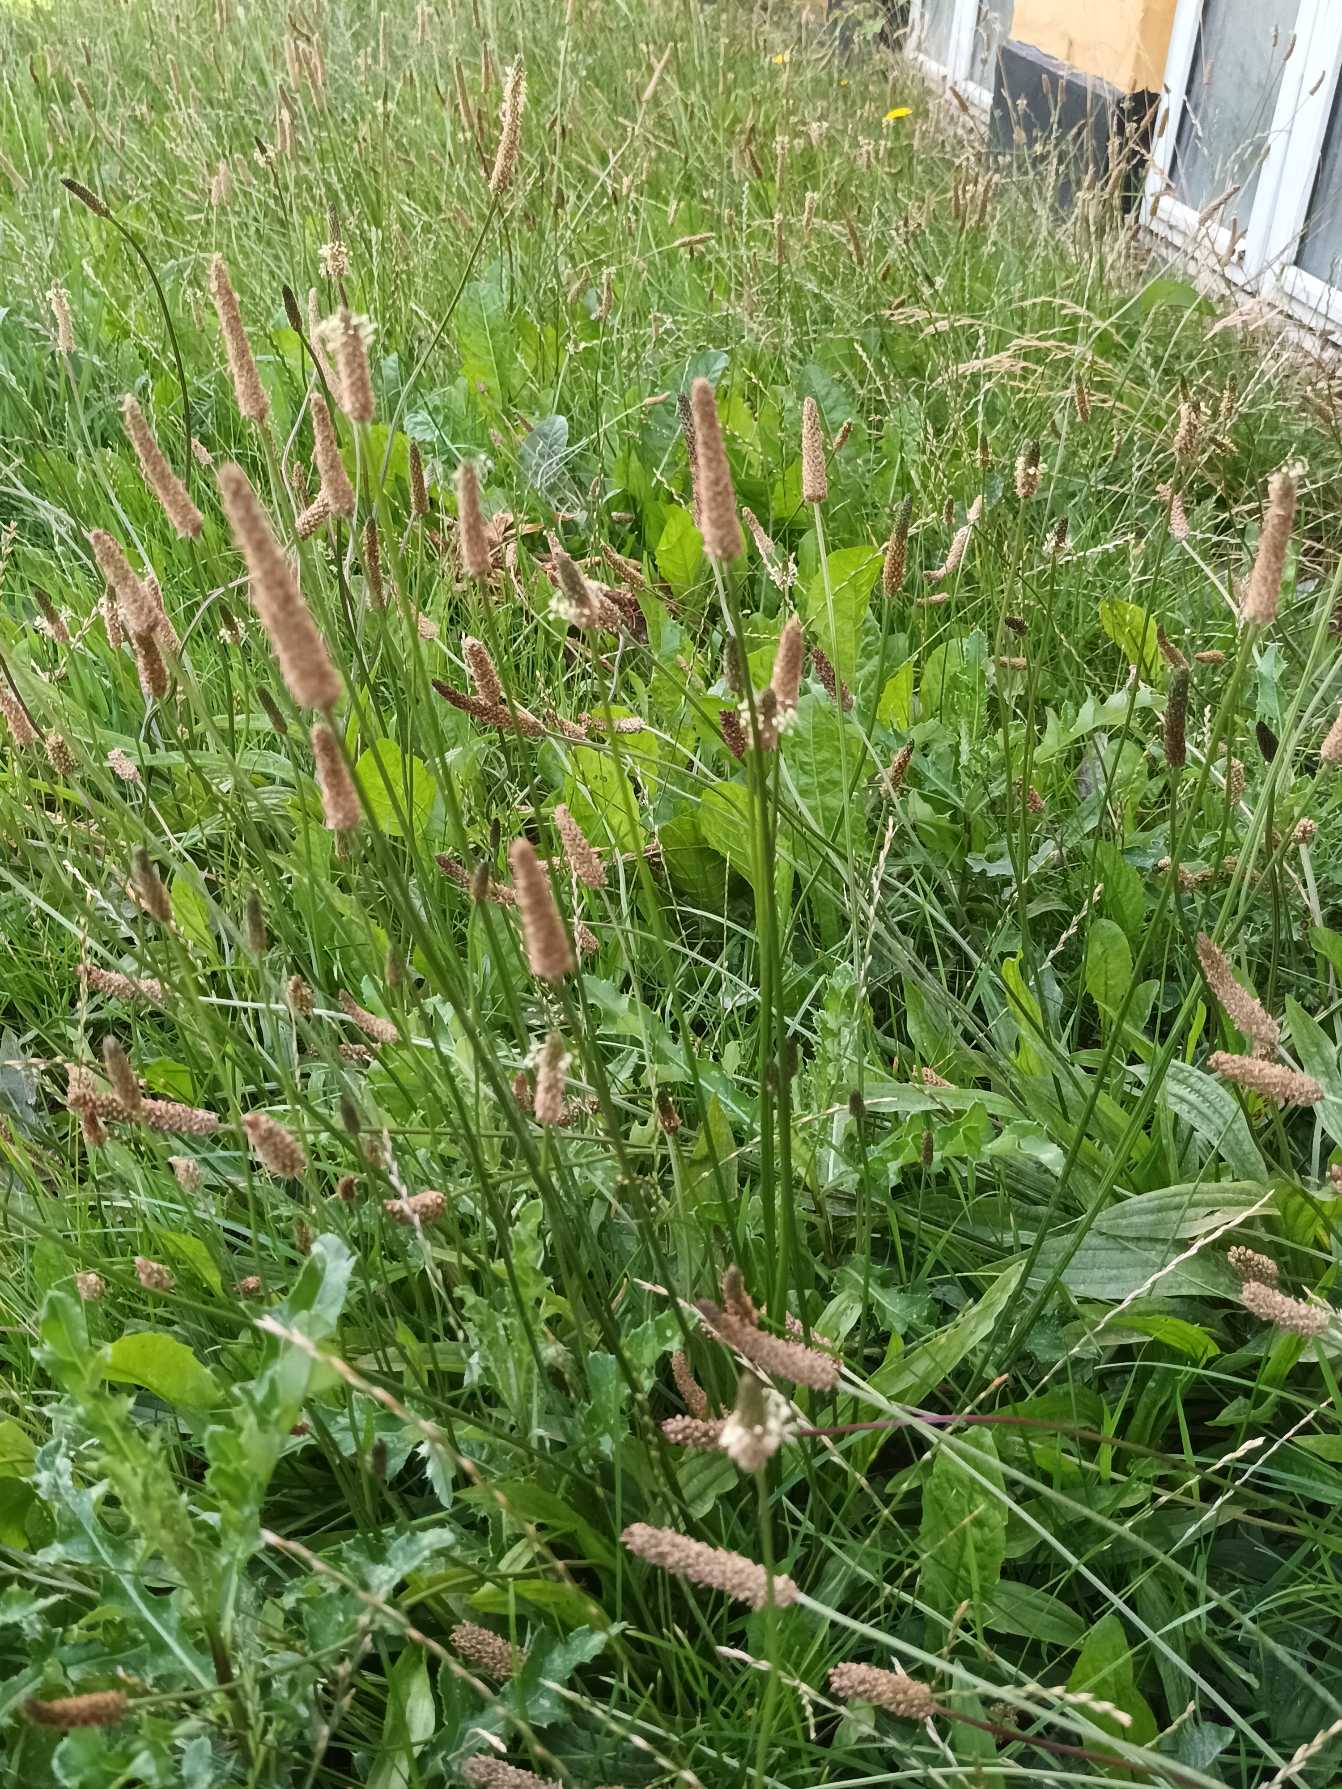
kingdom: Plantae
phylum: Tracheophyta
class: Magnoliopsida
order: Lamiales
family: Plantaginaceae
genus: Plantago
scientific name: Plantago lanceolata
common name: Lancet-vejbred
